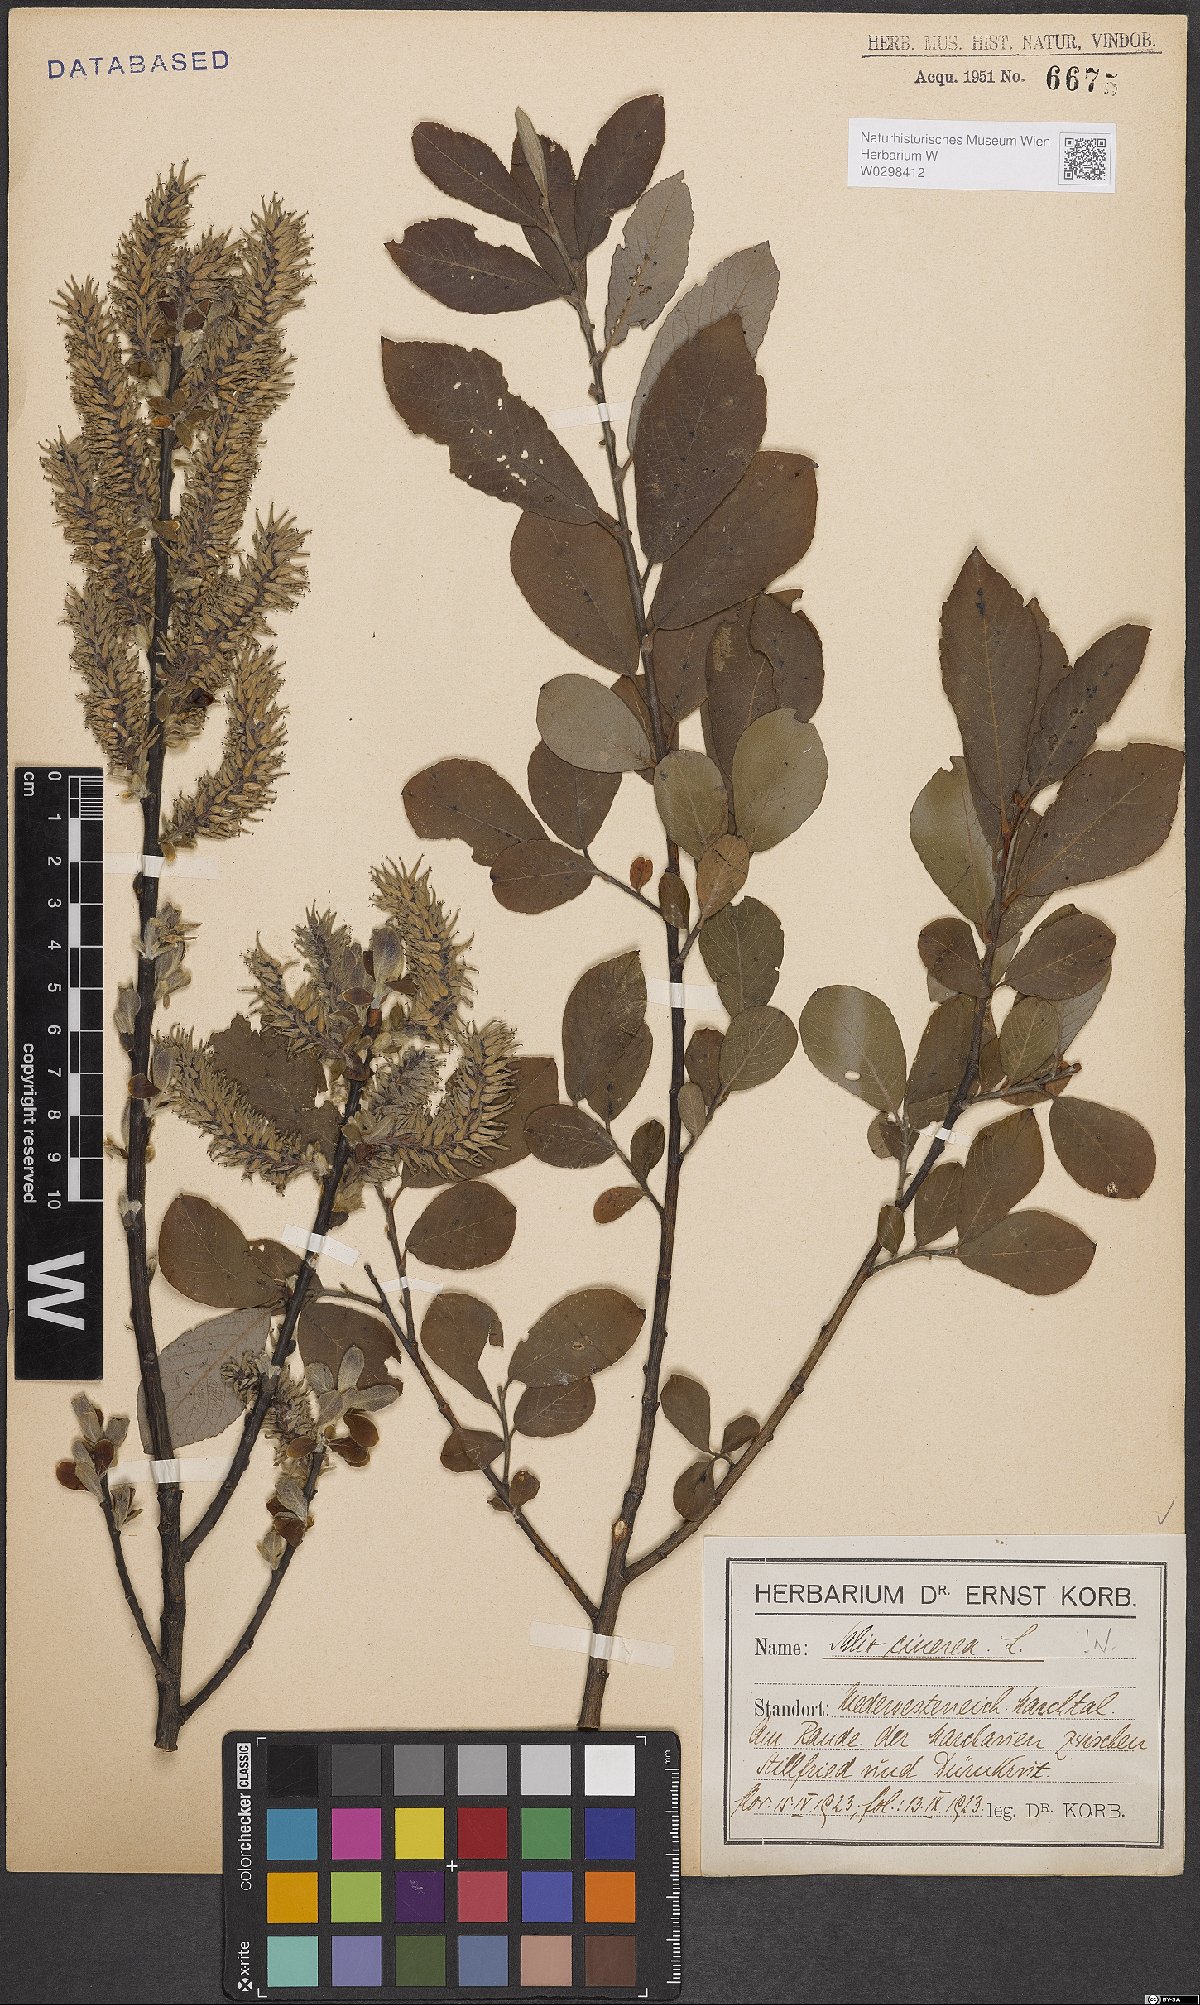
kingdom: Plantae
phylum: Tracheophyta
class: Magnoliopsida
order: Malpighiales
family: Salicaceae
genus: Salix
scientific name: Salix cinerea
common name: Common sallow
